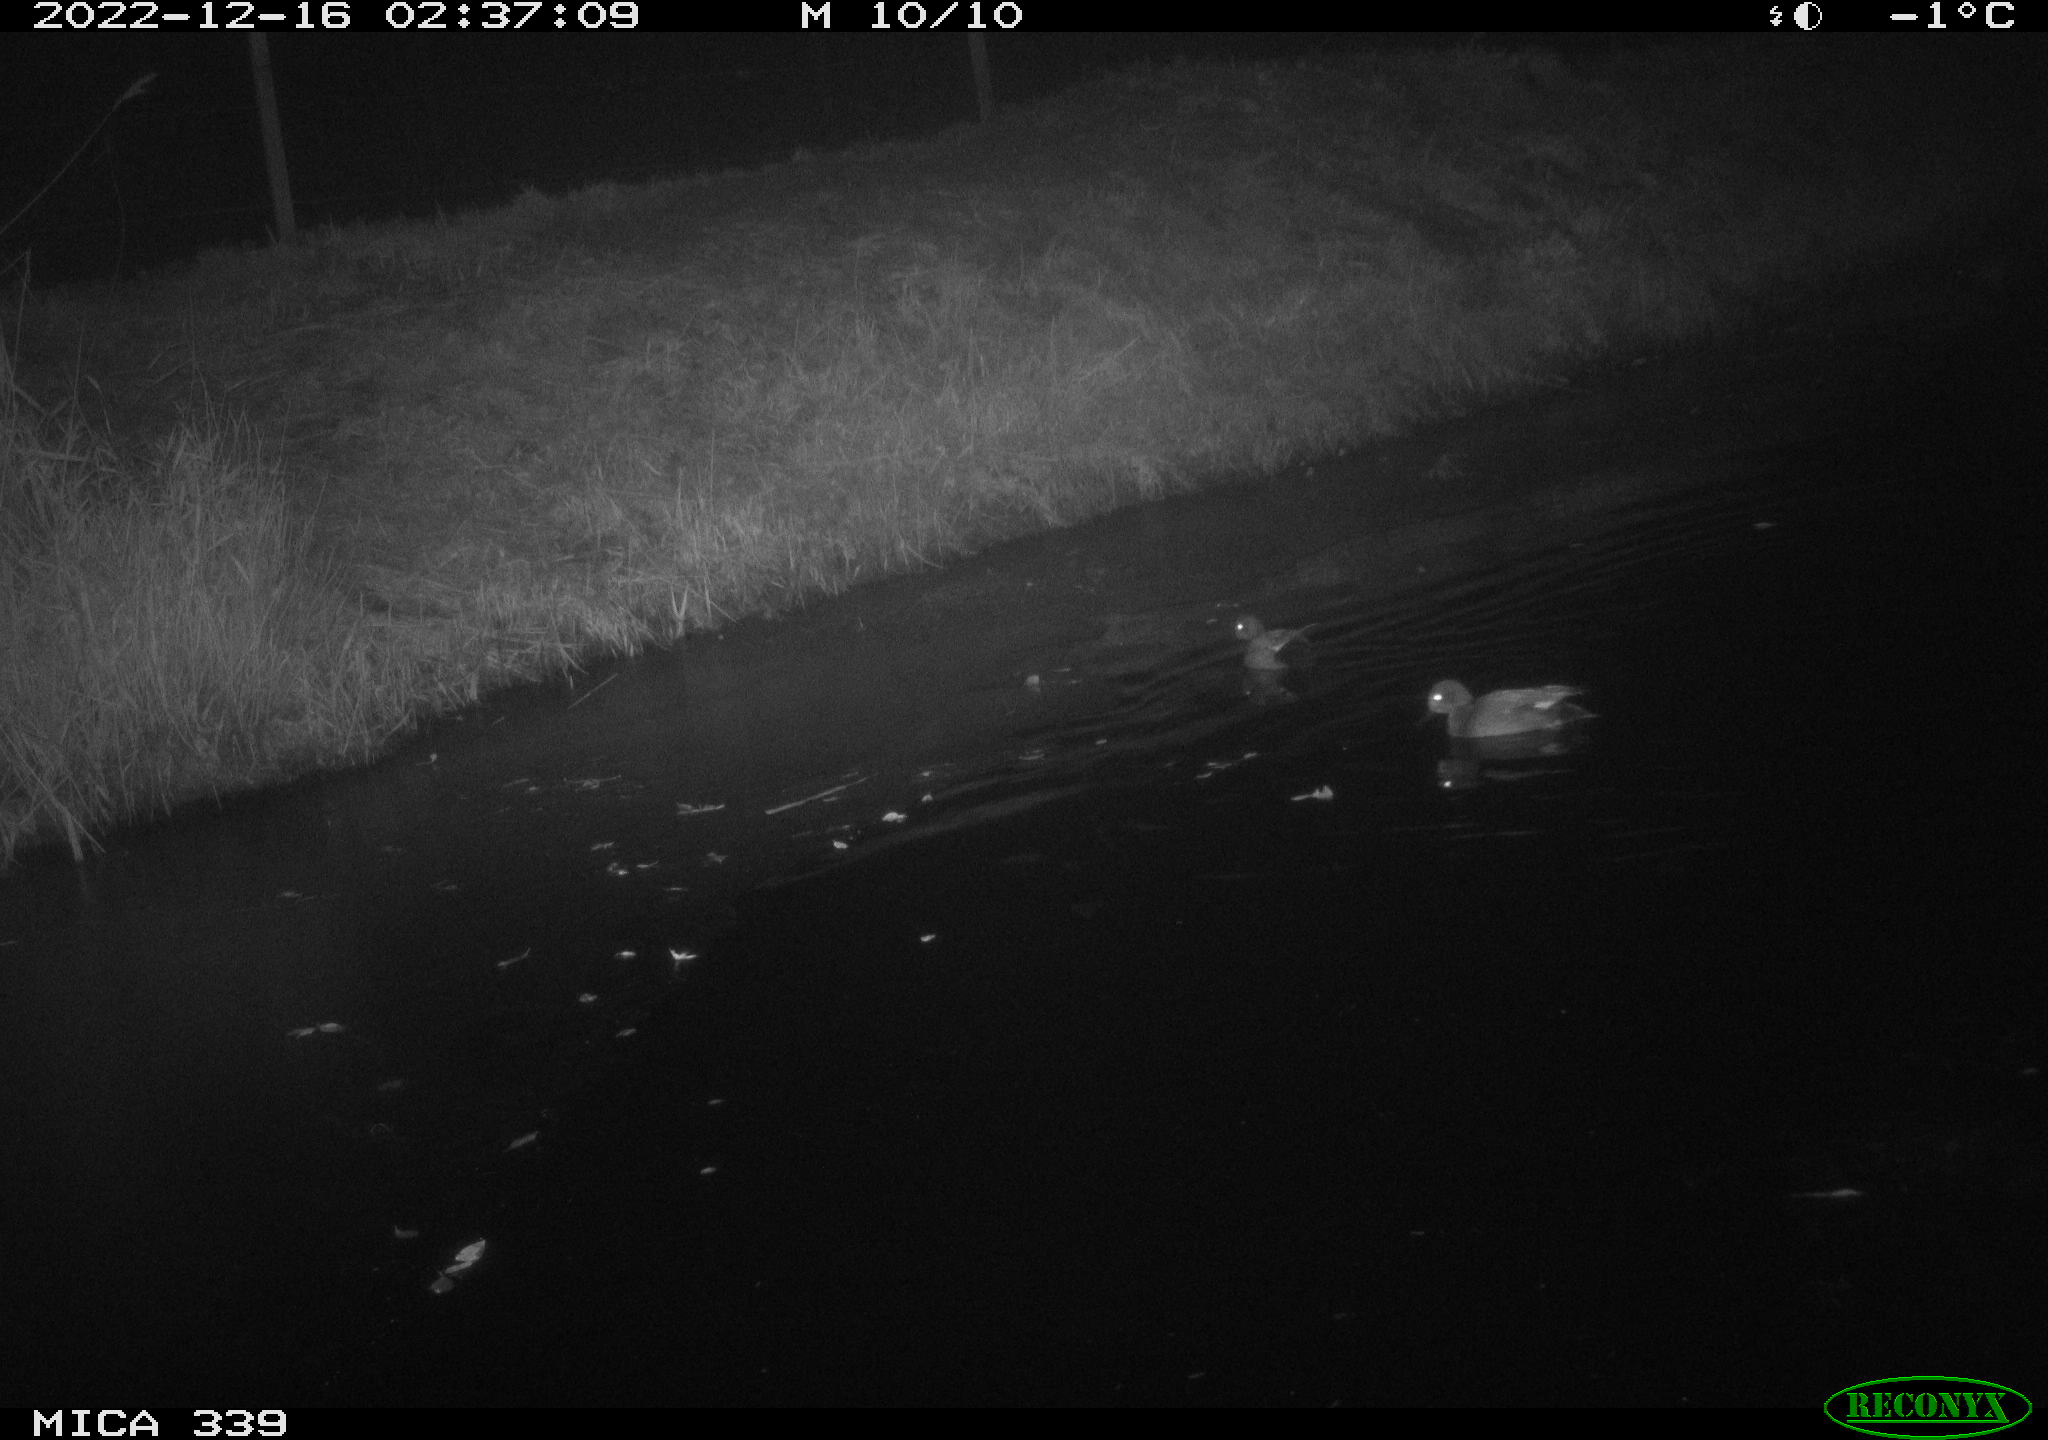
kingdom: Animalia
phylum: Chordata
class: Aves
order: Anseriformes
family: Anatidae
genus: Anas
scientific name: Anas
